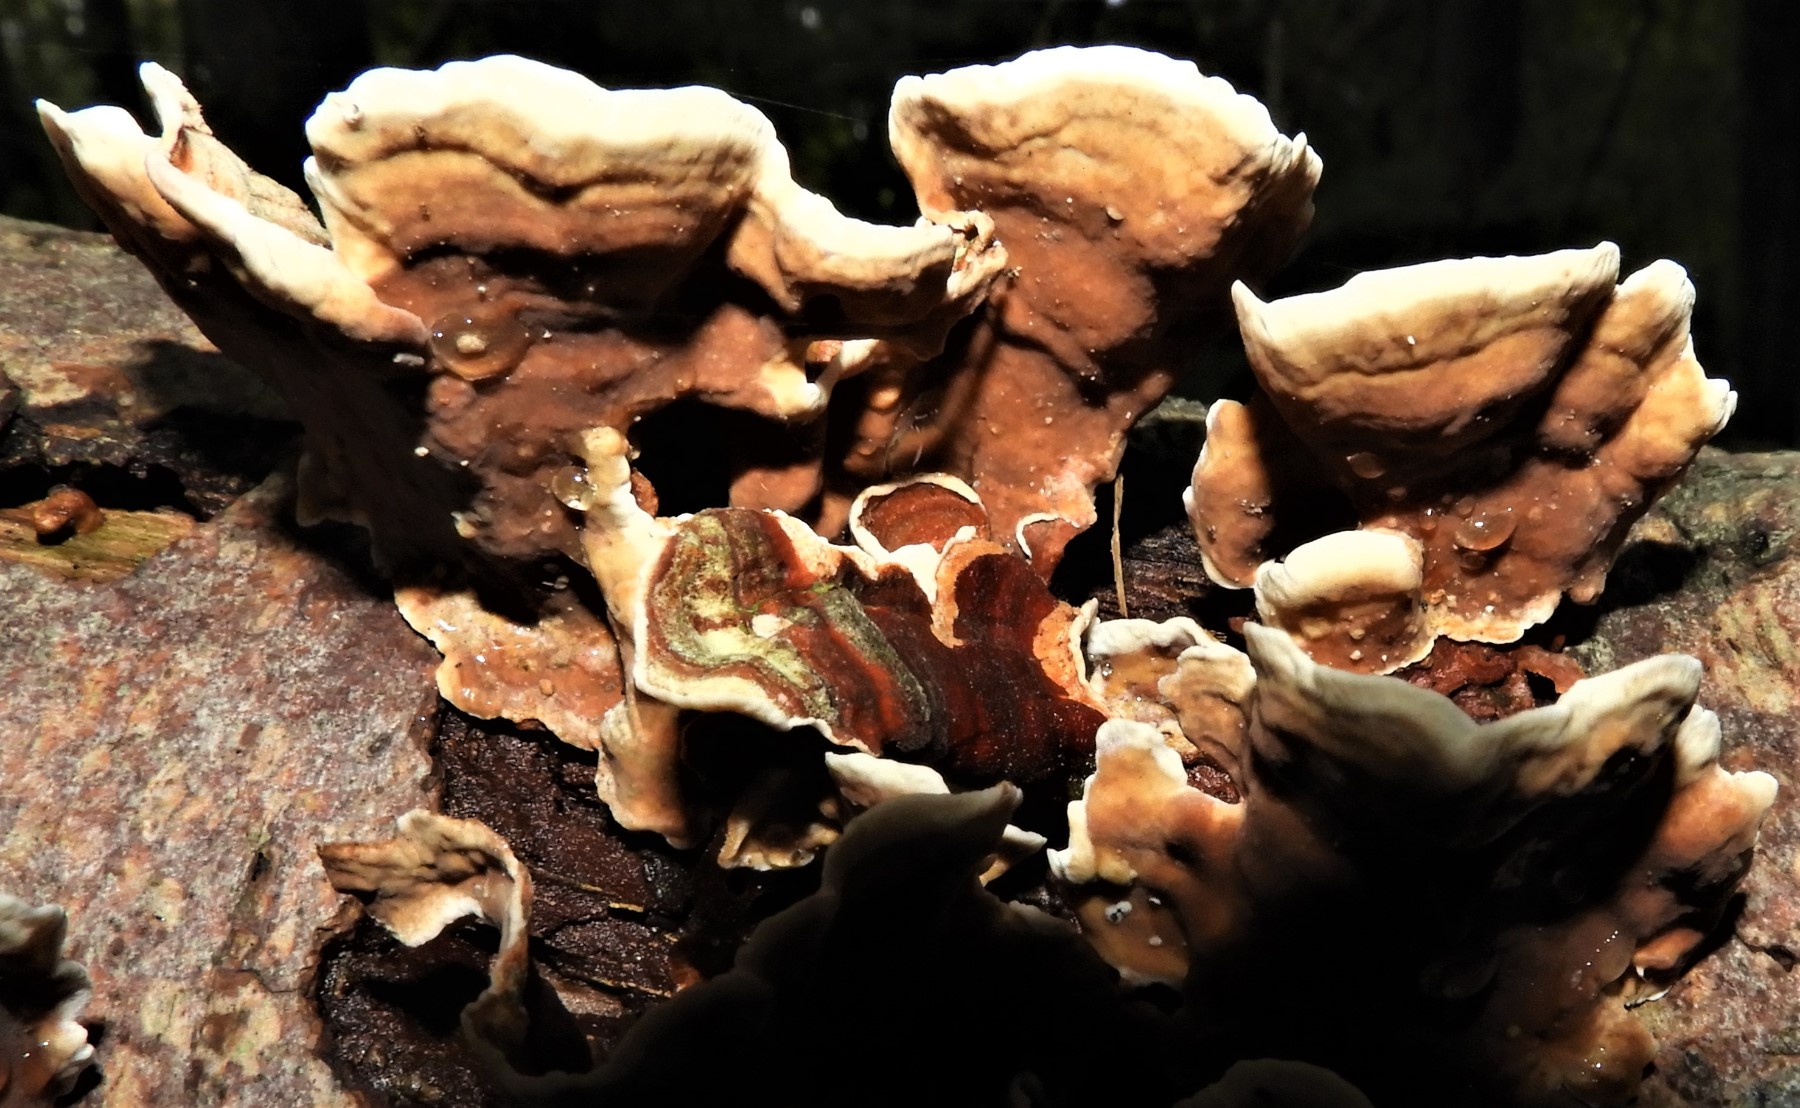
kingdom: Fungi
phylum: Basidiomycota
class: Agaricomycetes
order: Russulales
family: Stereaceae
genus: Stereum
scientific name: Stereum subtomentosum
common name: smuk lædersvamp
